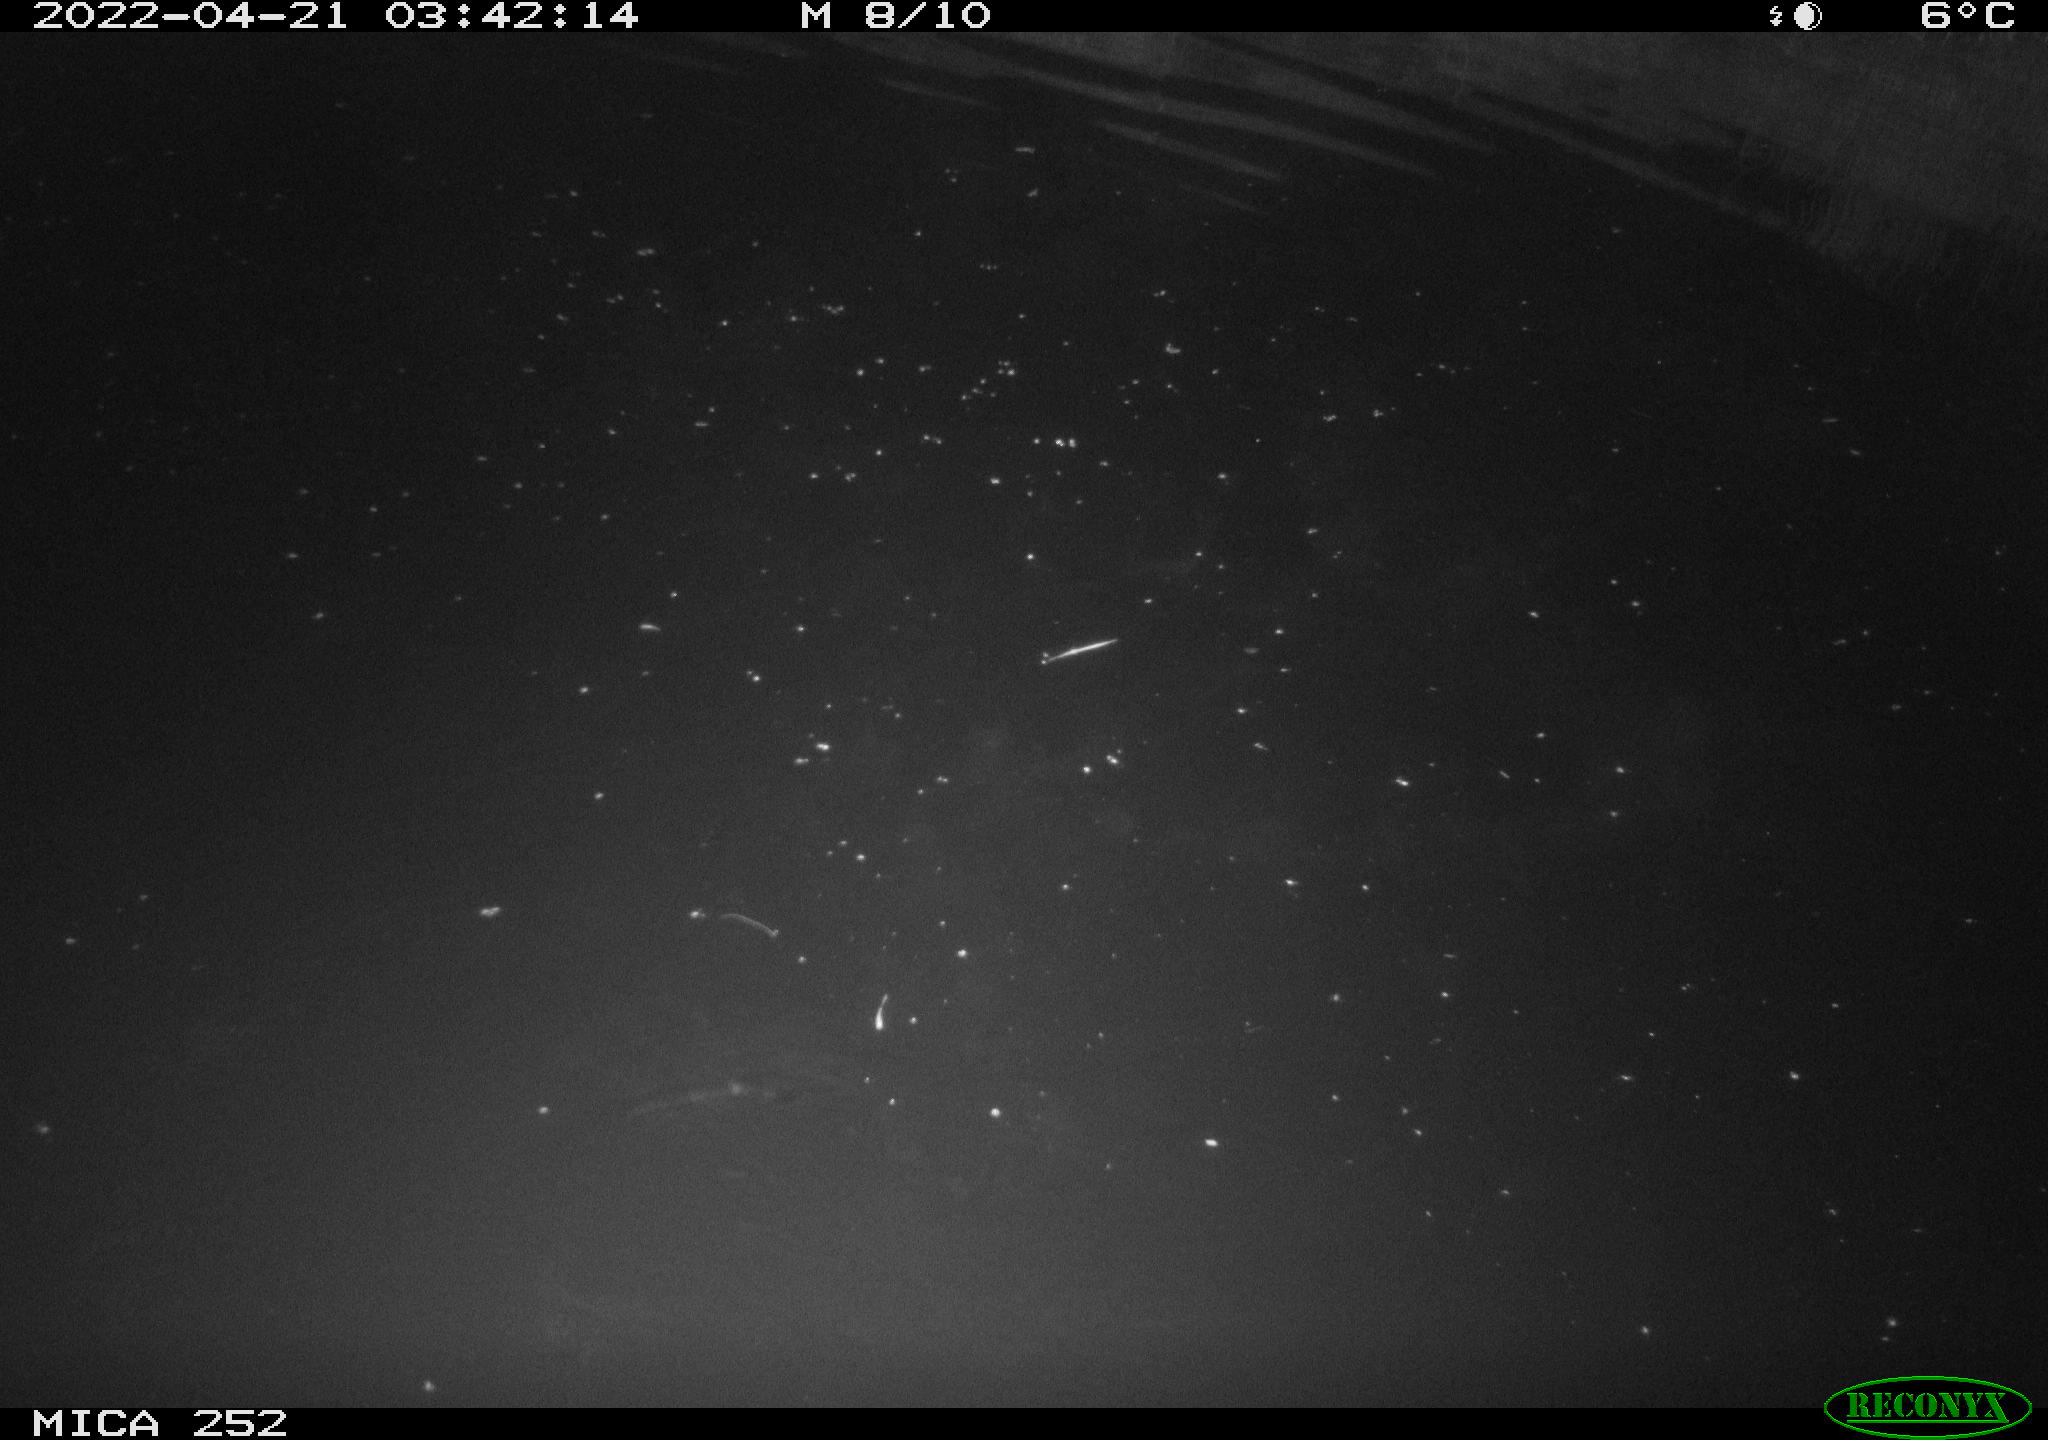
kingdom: Animalia
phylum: Chordata
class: Mammalia
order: Rodentia
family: Castoridae
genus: Castor
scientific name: Castor fiber
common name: Eurasian beaver
